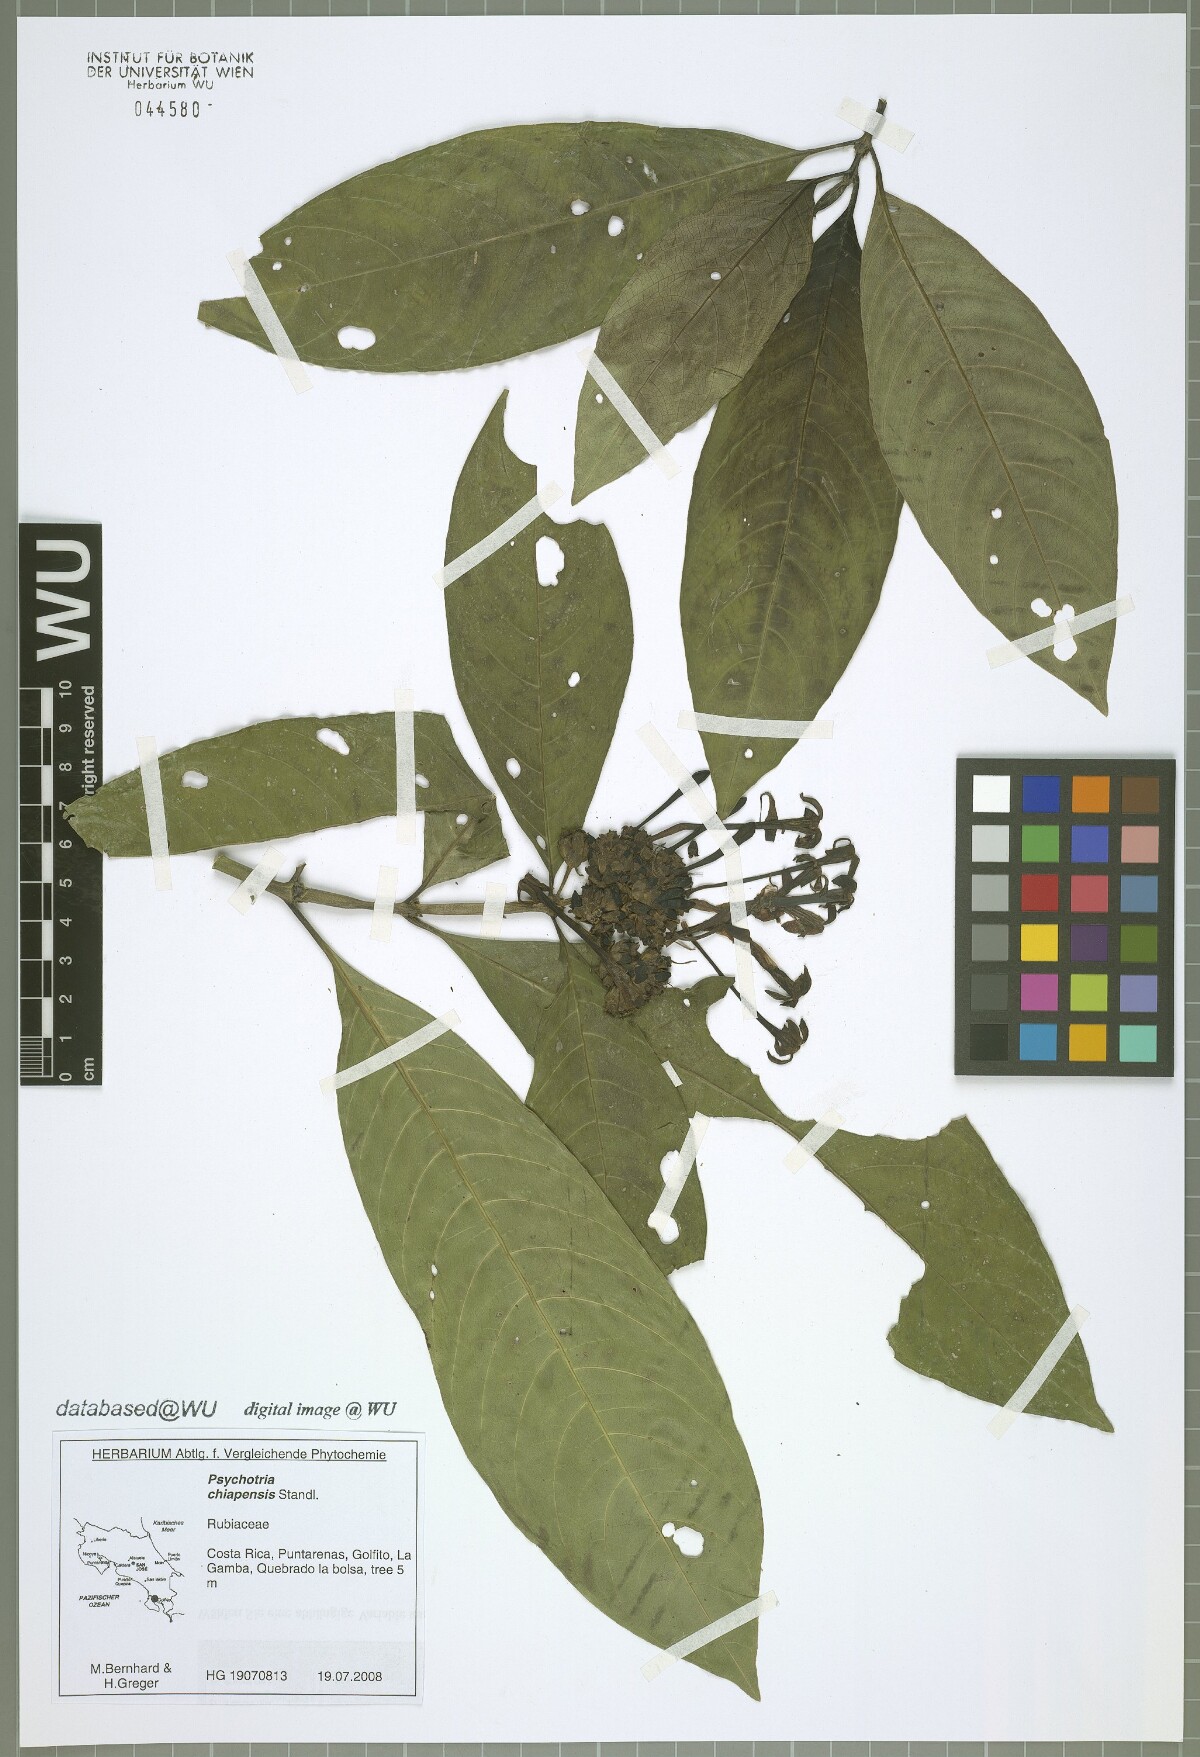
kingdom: Plantae
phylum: Tracheophyta
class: Magnoliopsida
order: Gentianales
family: Rubiaceae
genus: Palicourea
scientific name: Palicourea tetragona
